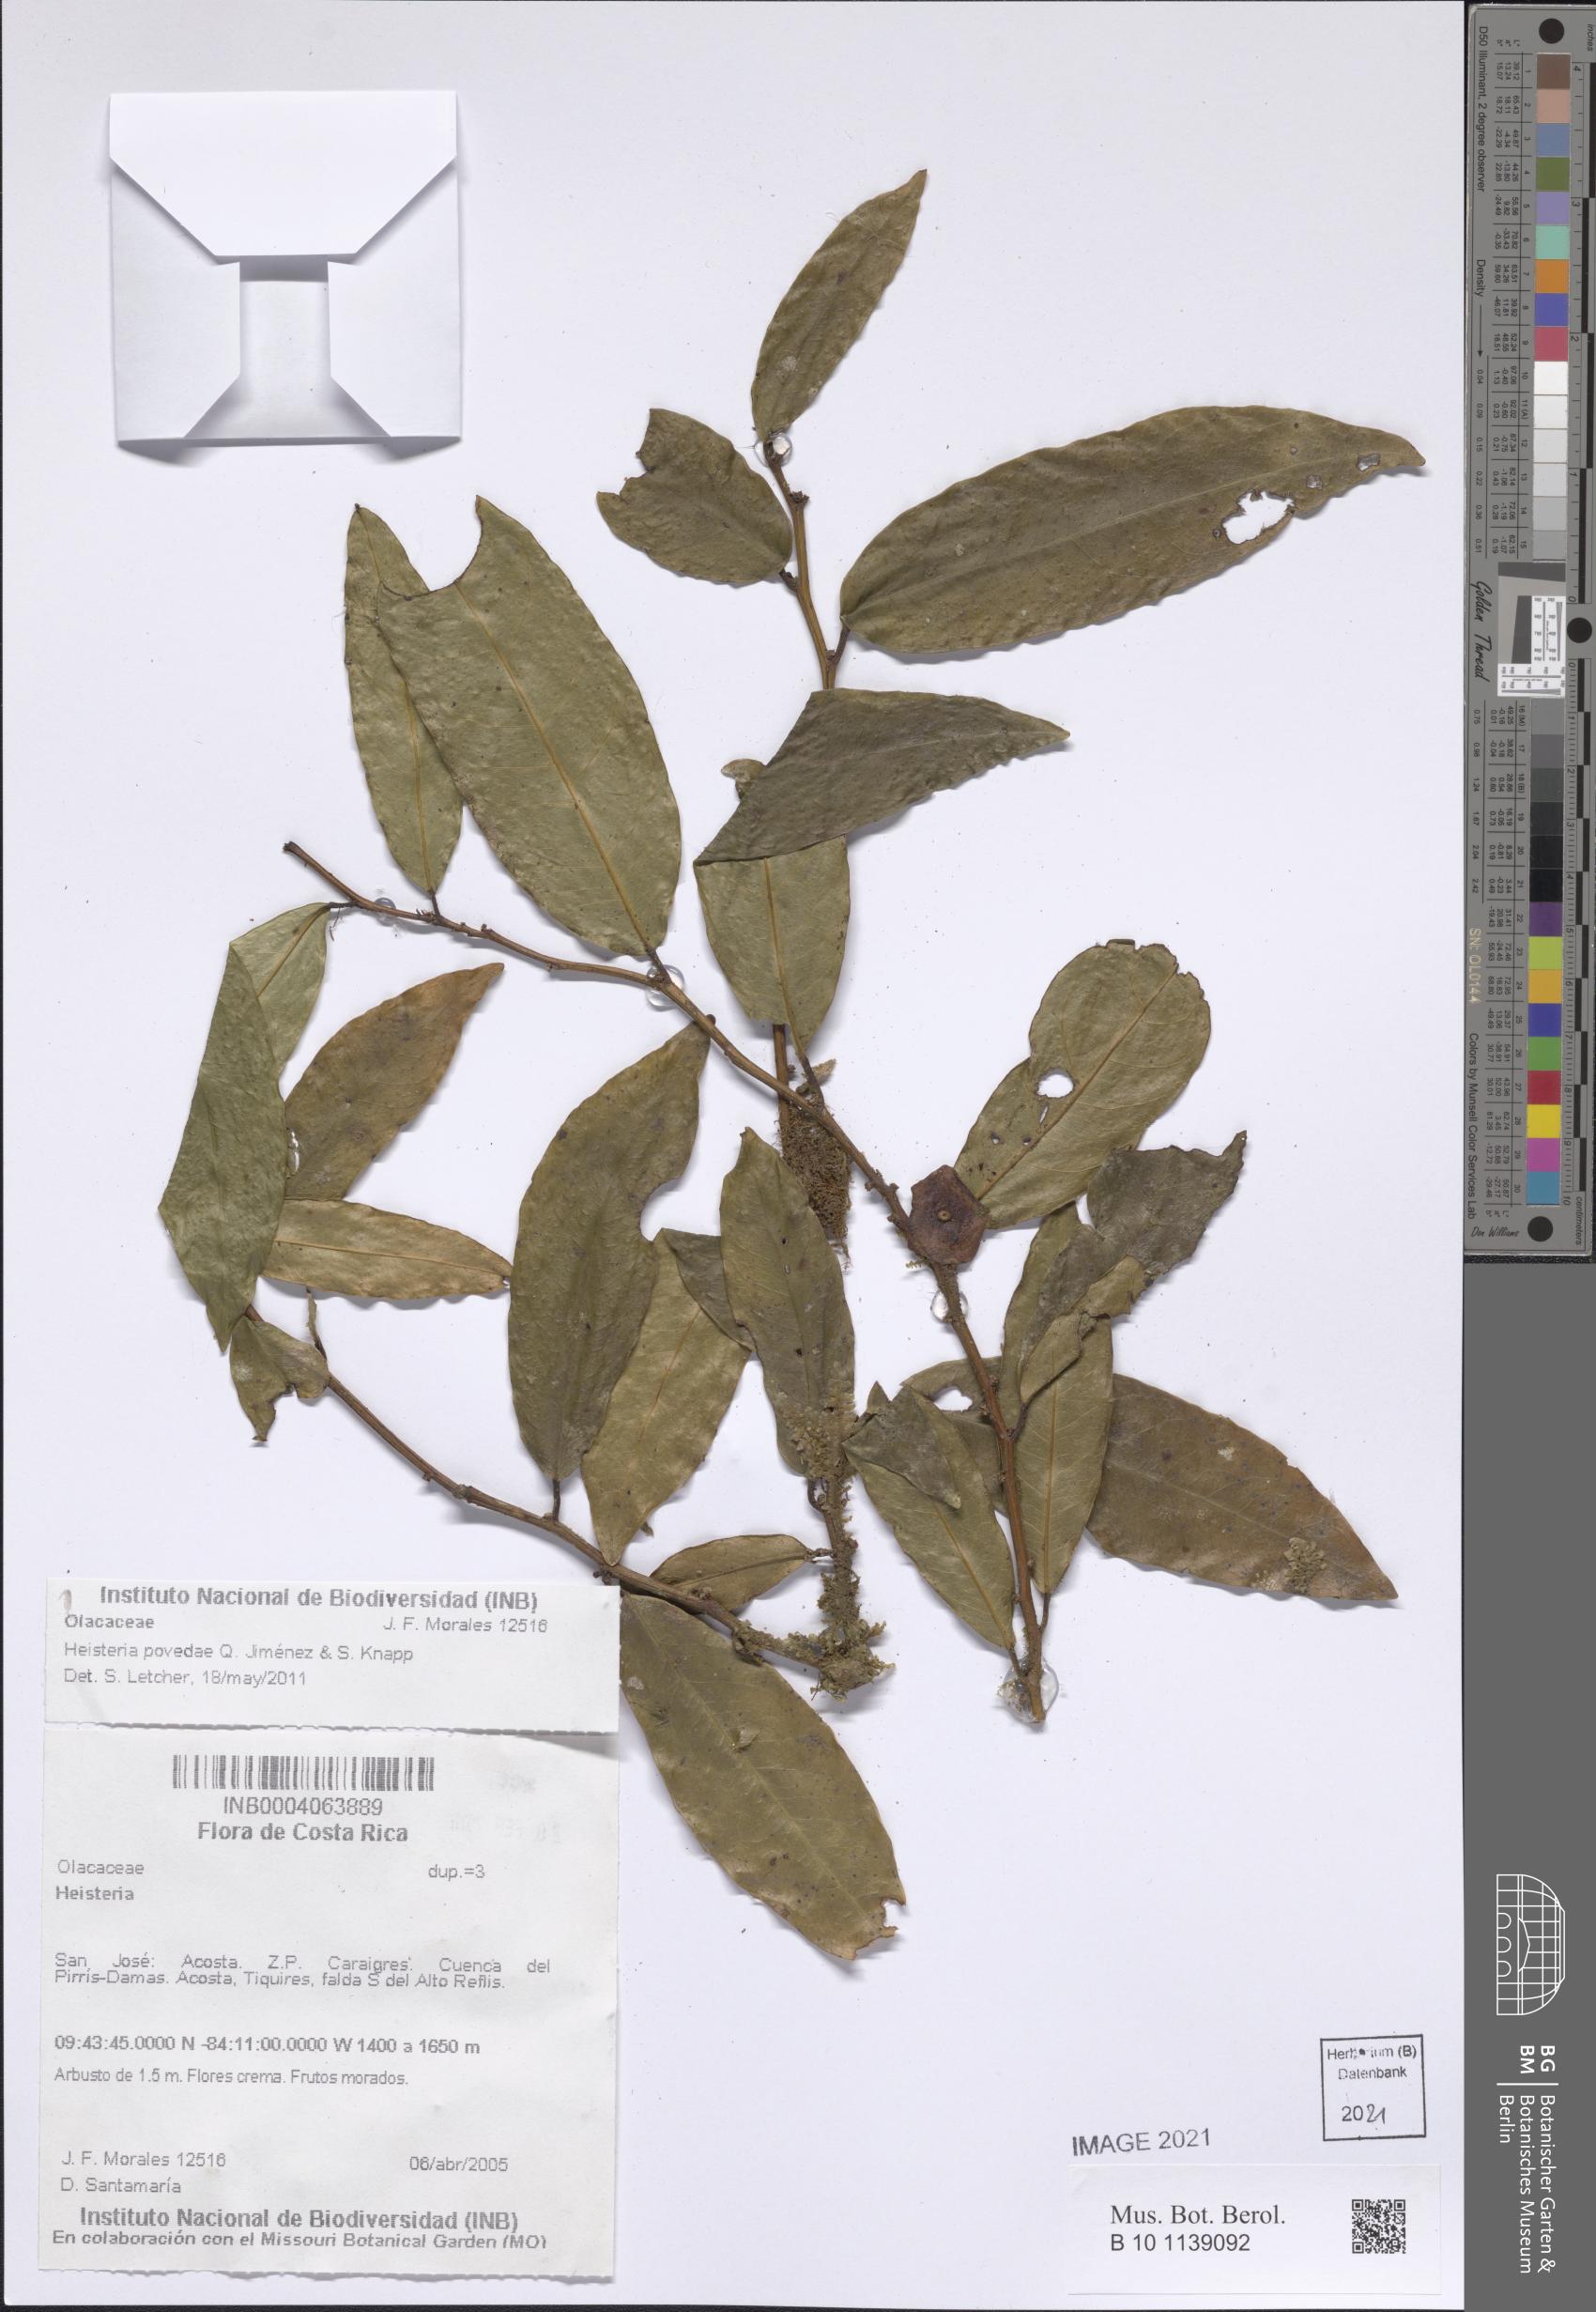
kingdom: Plantae
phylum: Tracheophyta
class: Magnoliopsida
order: Santalales
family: Erythropalaceae
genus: Heisteria
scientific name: Heisteria povedae
